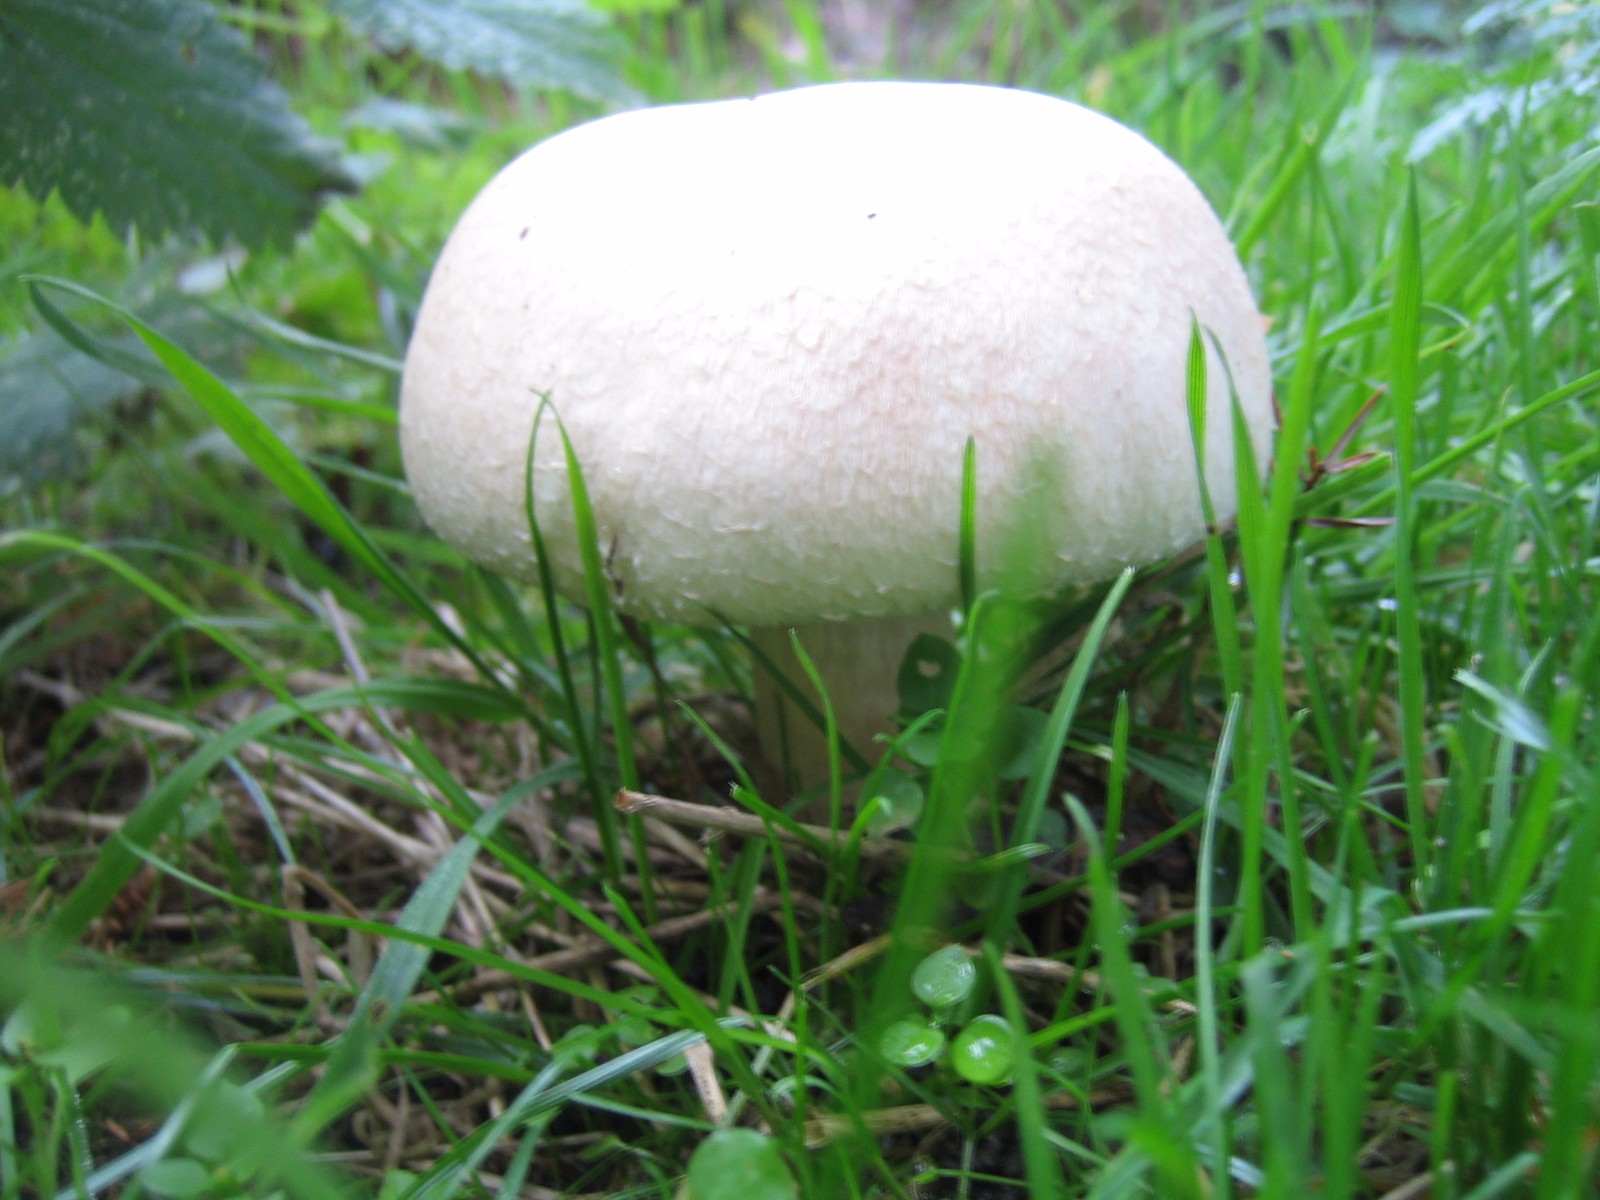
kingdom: Fungi
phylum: Basidiomycota
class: Agaricomycetes
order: Agaricales
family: Agaricaceae
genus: Agaricus
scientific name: Agaricus arvensis
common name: ager-champignon
